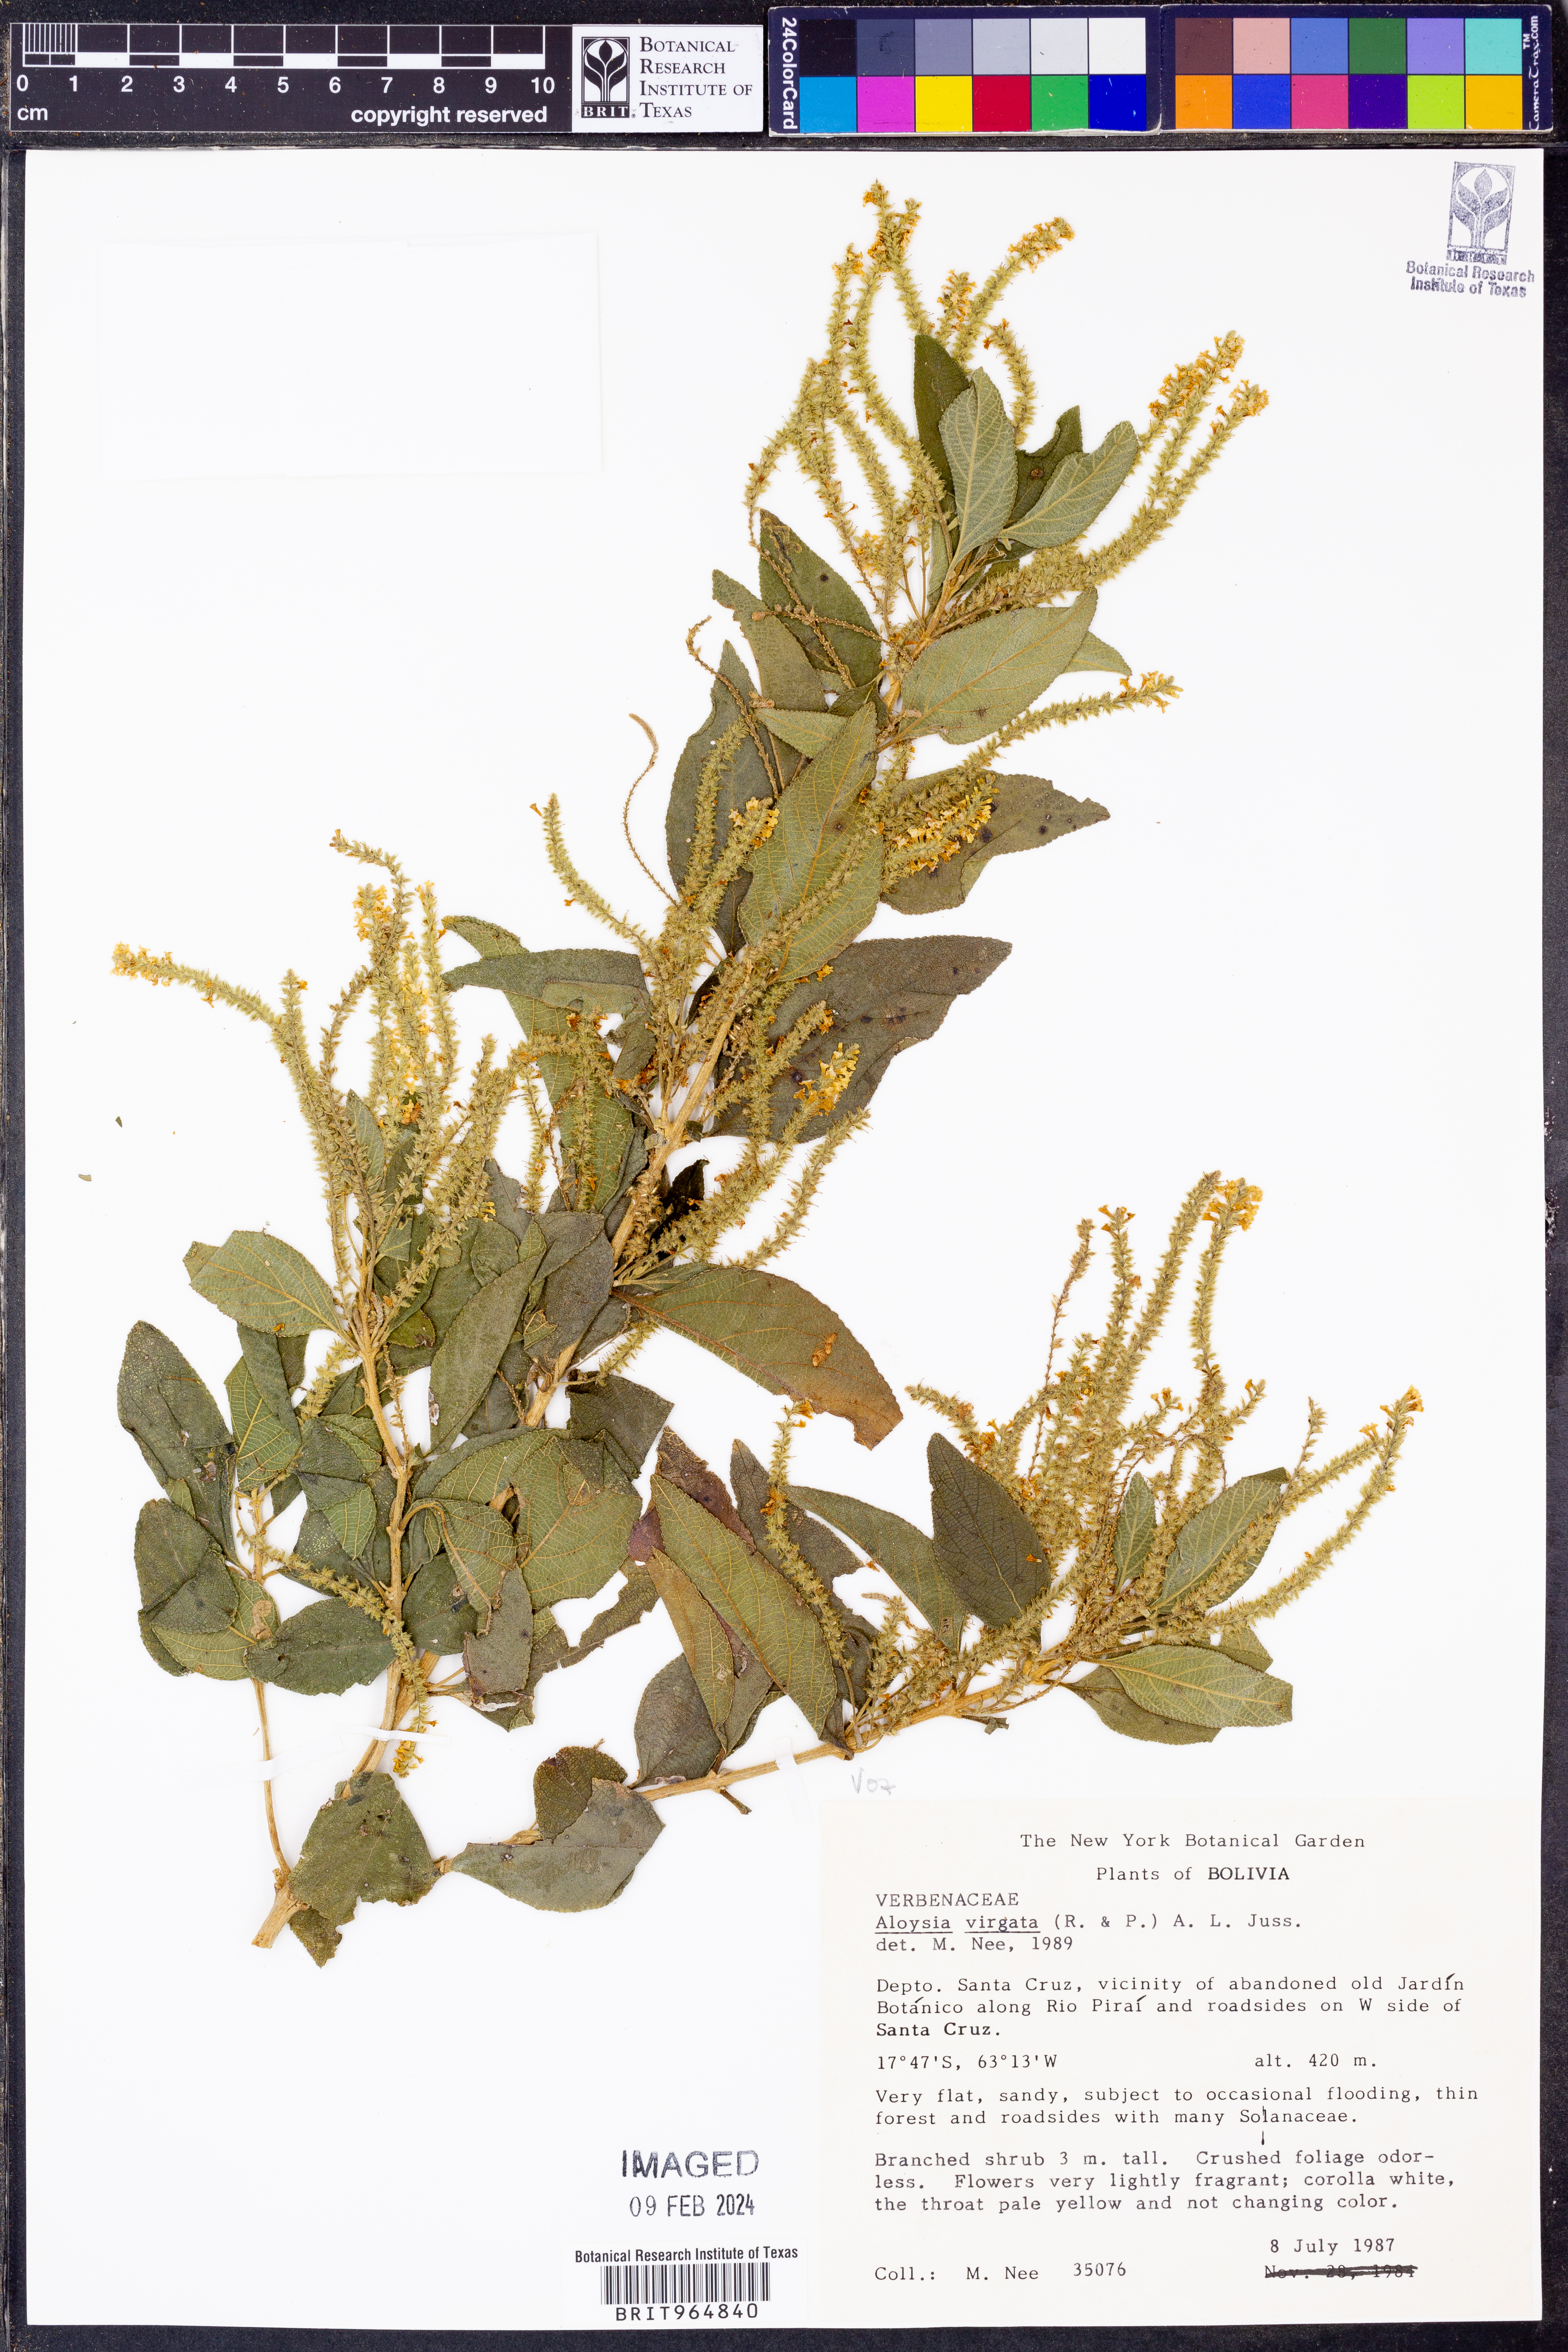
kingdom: Plantae
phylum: Tracheophyta
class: Magnoliopsida
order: Lamiales
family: Verbenaceae
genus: Aloysia
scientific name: Aloysia
